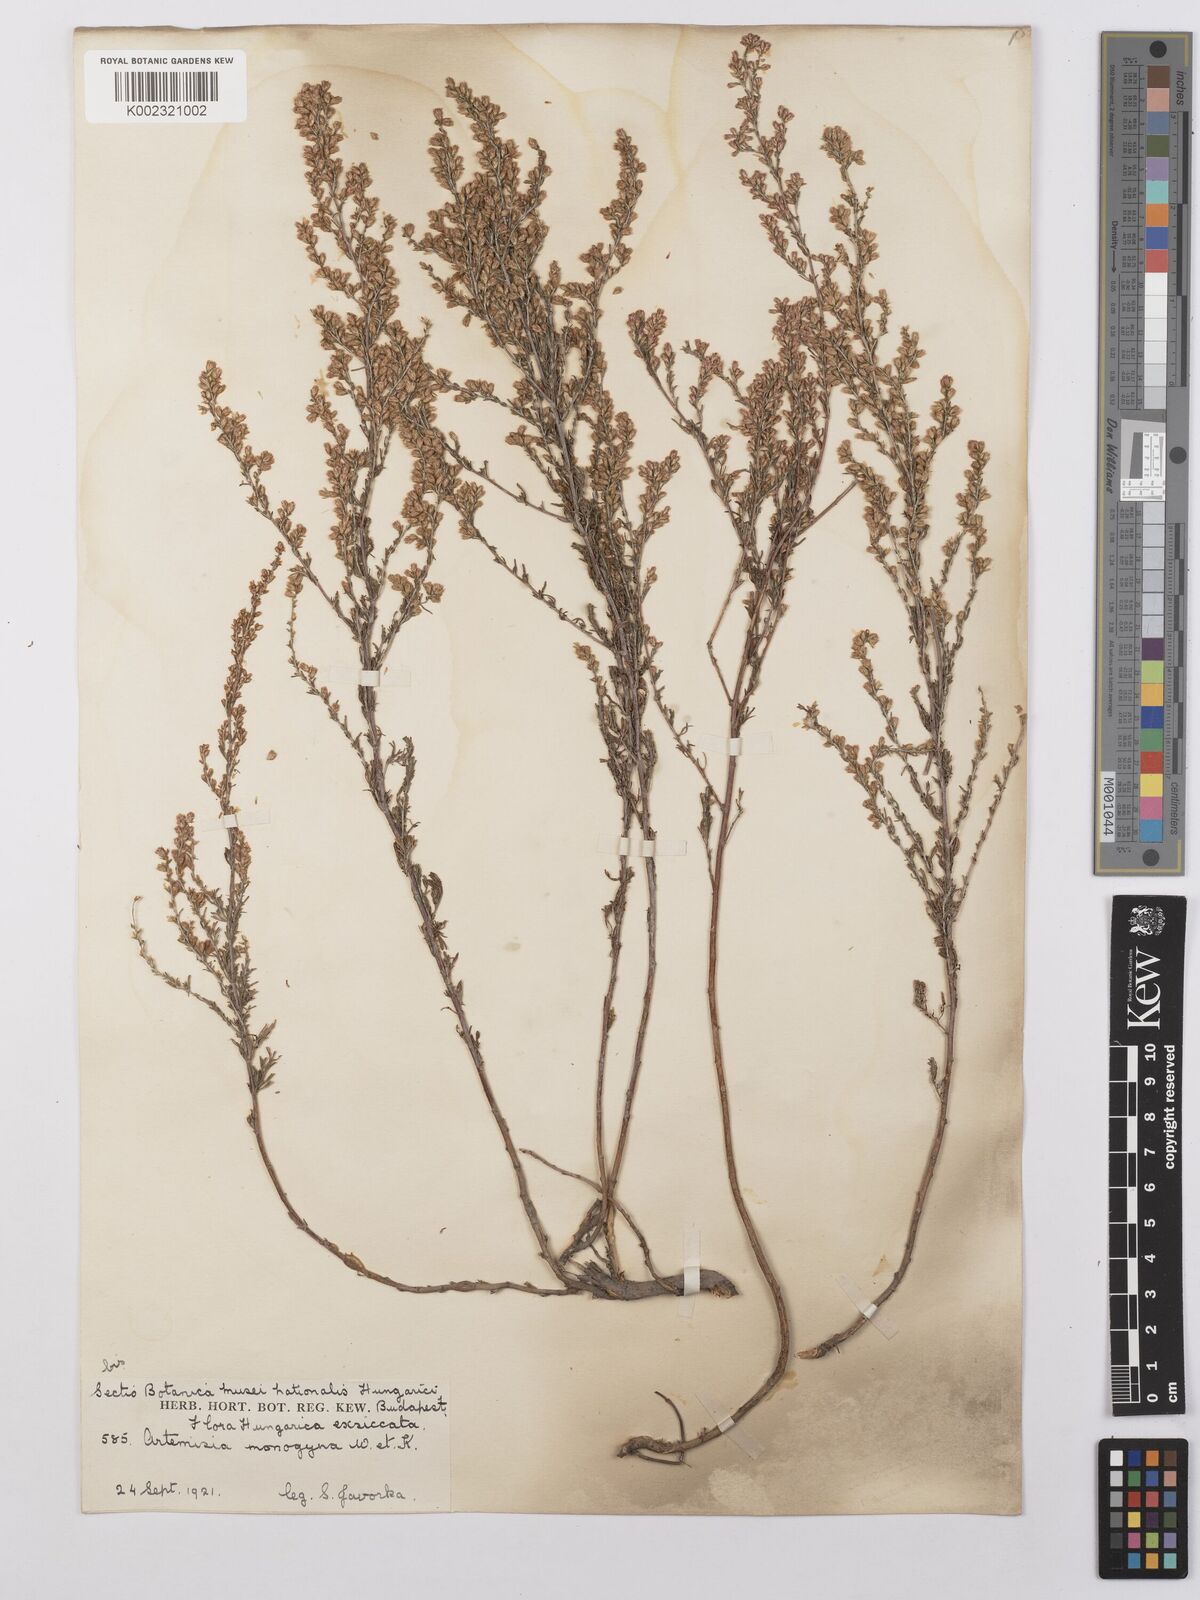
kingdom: Plantae
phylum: Tracheophyta
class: Magnoliopsida
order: Asterales
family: Asteraceae
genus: Artemisia
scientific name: Artemisia santolina
